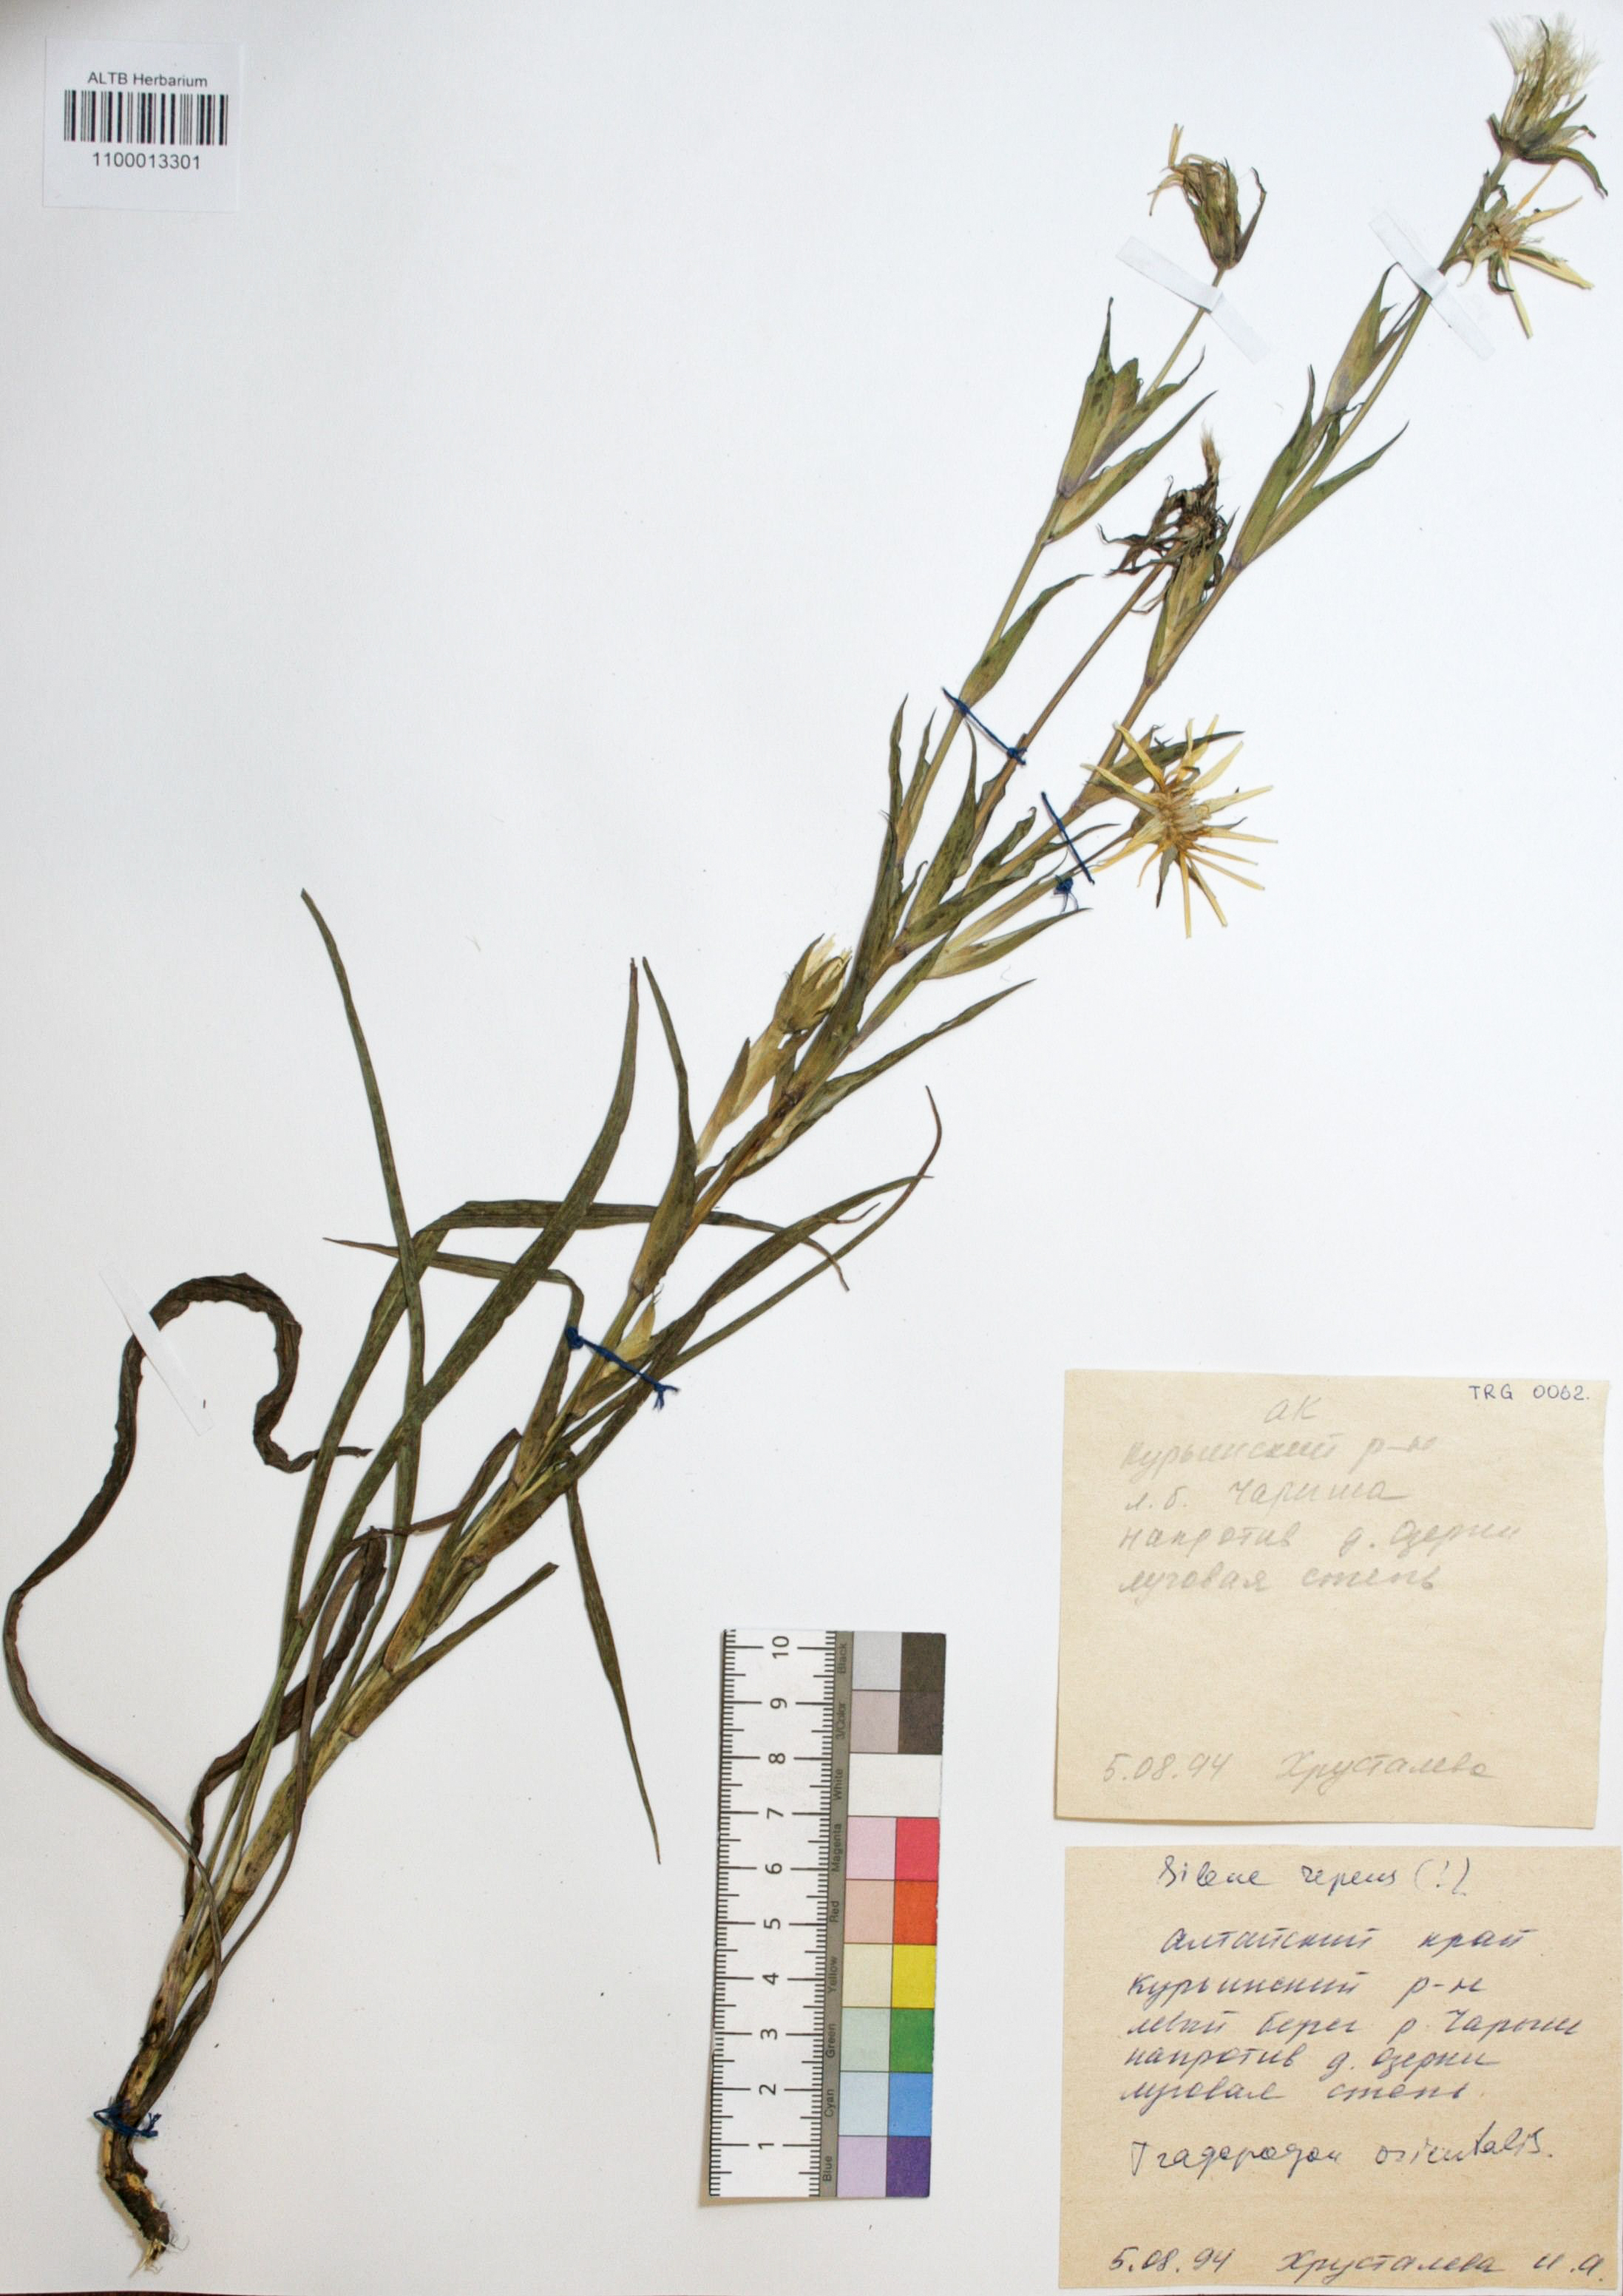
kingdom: Plantae
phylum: Tracheophyta
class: Magnoliopsida
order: Asterales
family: Asteraceae
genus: Tragopogon
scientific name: Tragopogon orientalis
